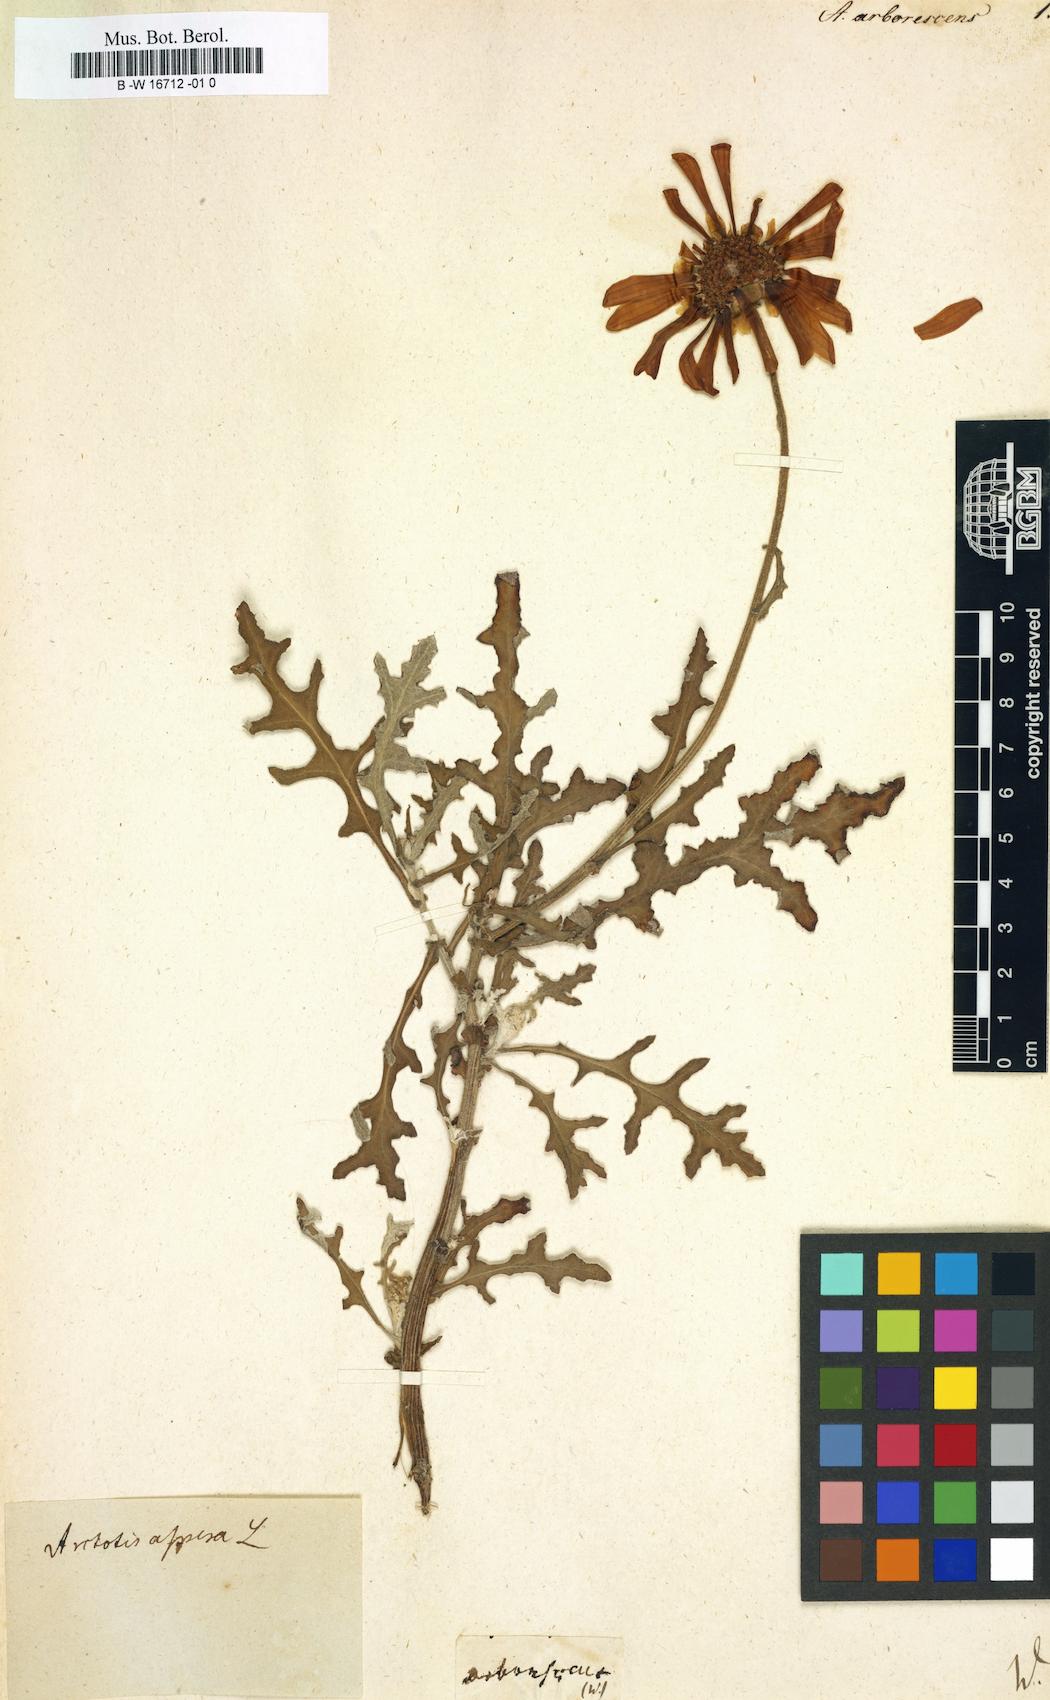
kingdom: Plantae
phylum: Tracheophyta
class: Magnoliopsida
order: Asterales
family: Asteraceae
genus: Arctotis
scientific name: Arctotis aspera
